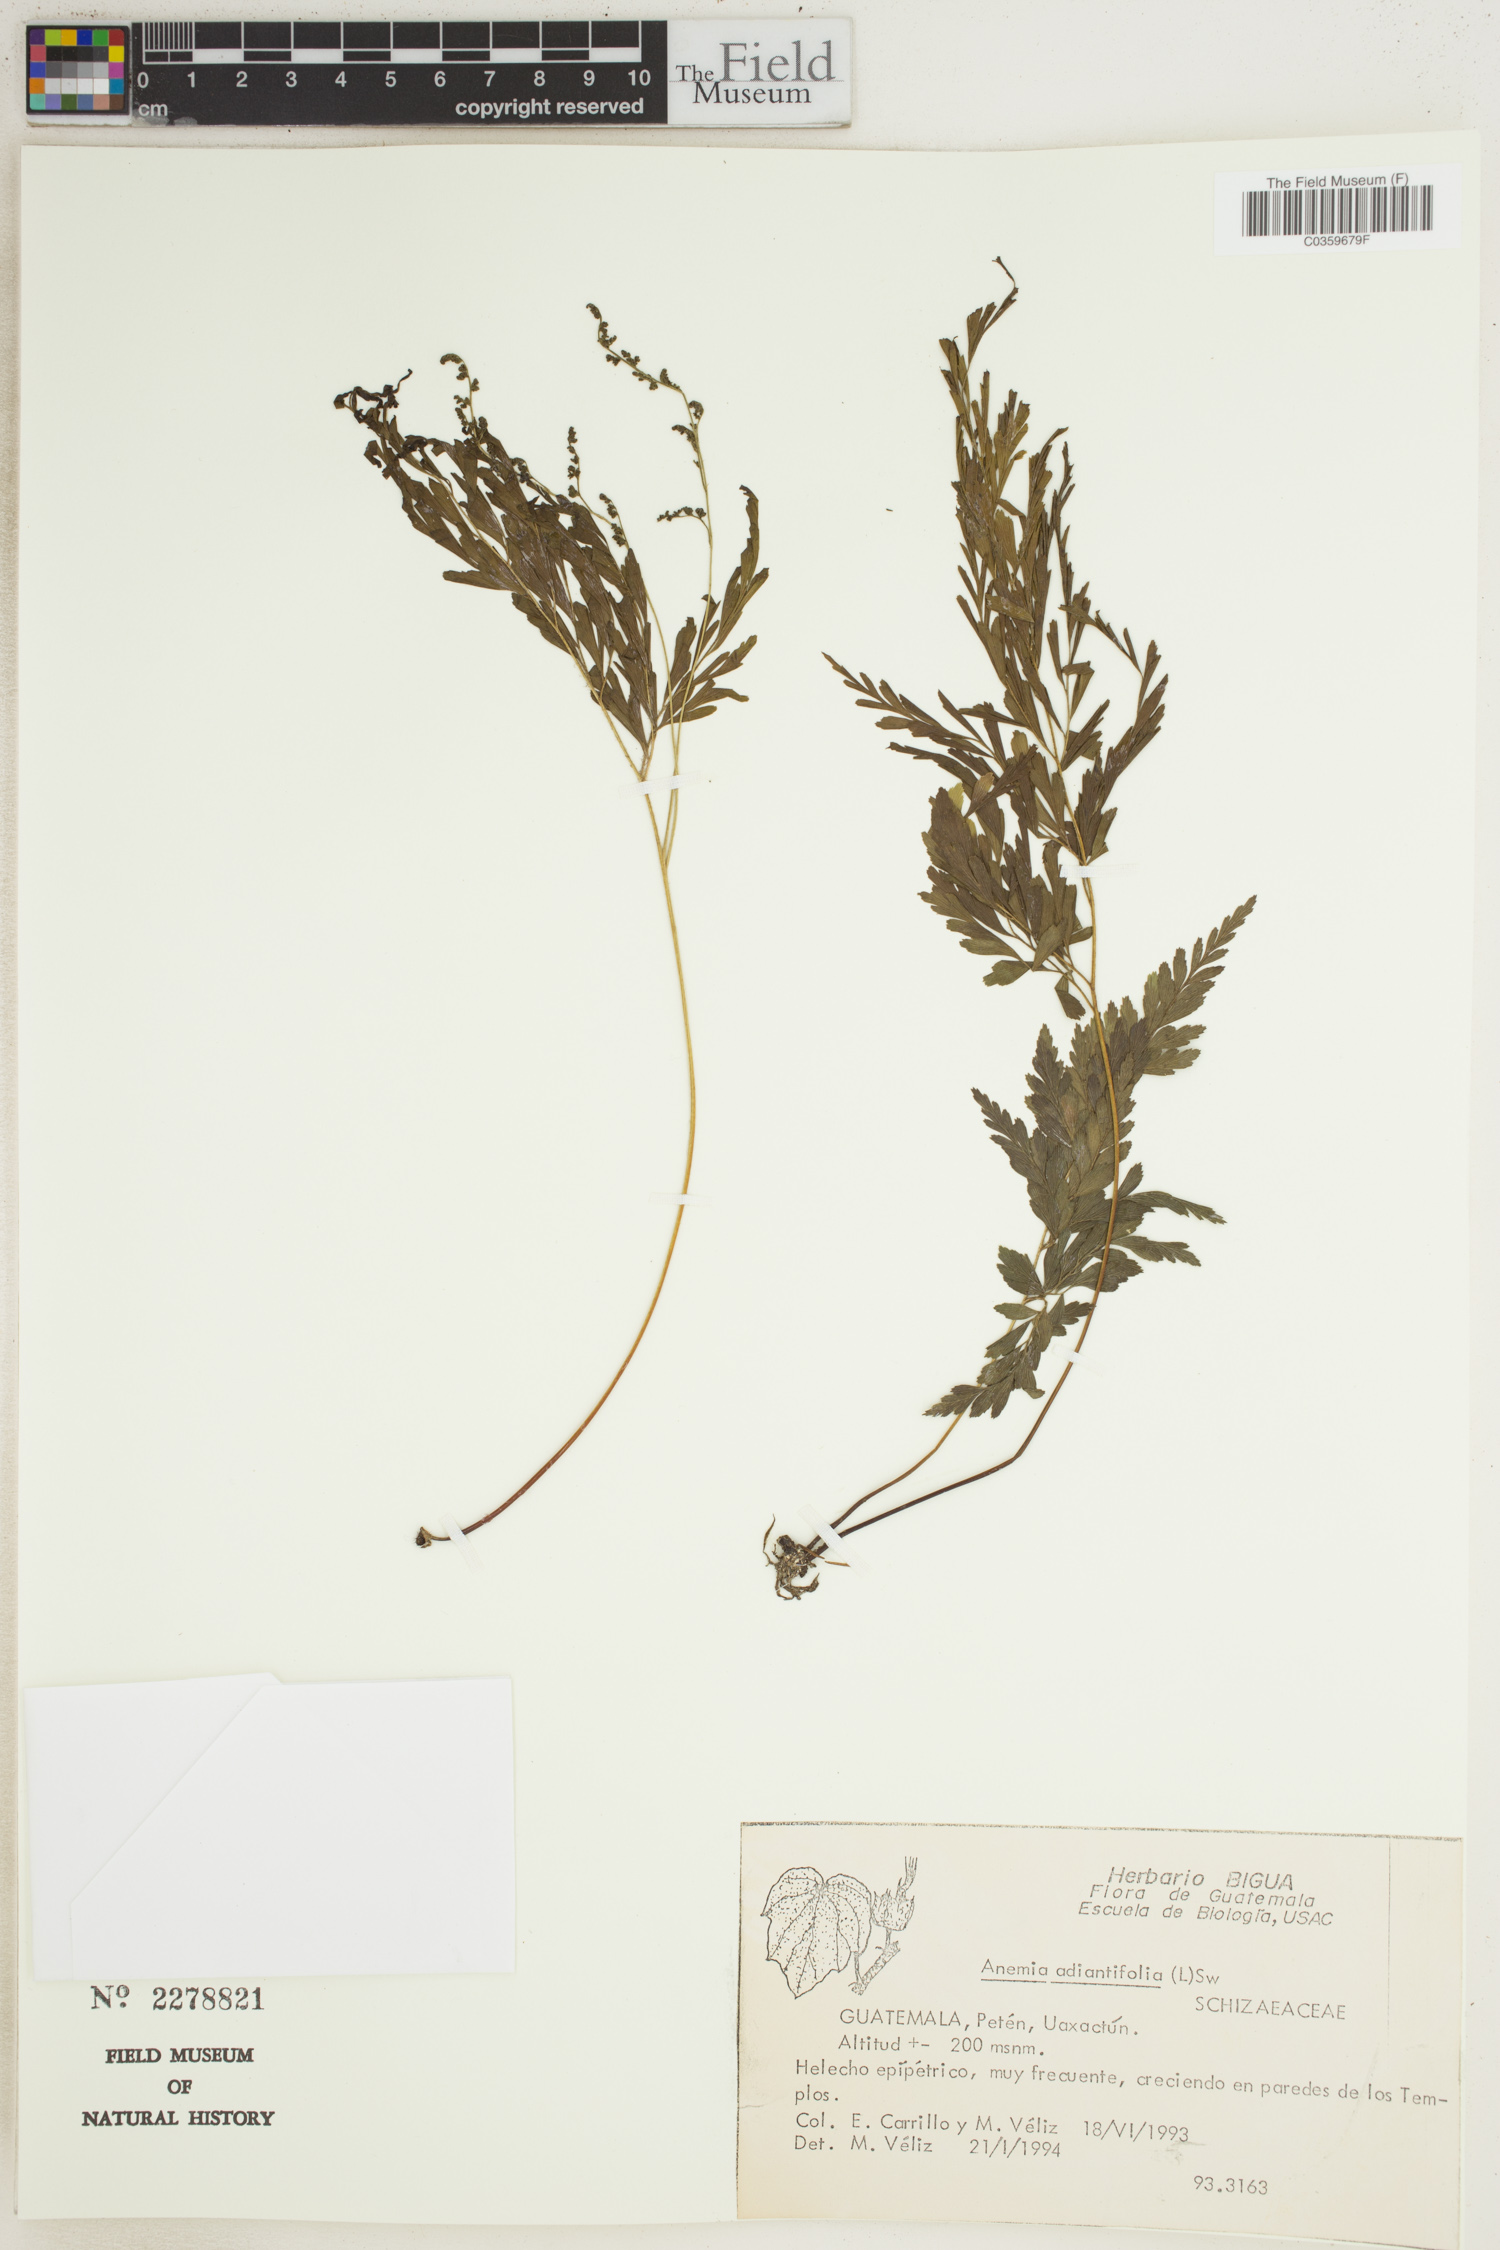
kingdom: Plantae
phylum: Tracheophyta
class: Polypodiopsida
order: Schizaeales
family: Anemiaceae
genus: Anemia
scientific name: Anemia adiantifolia
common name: Pine fern
